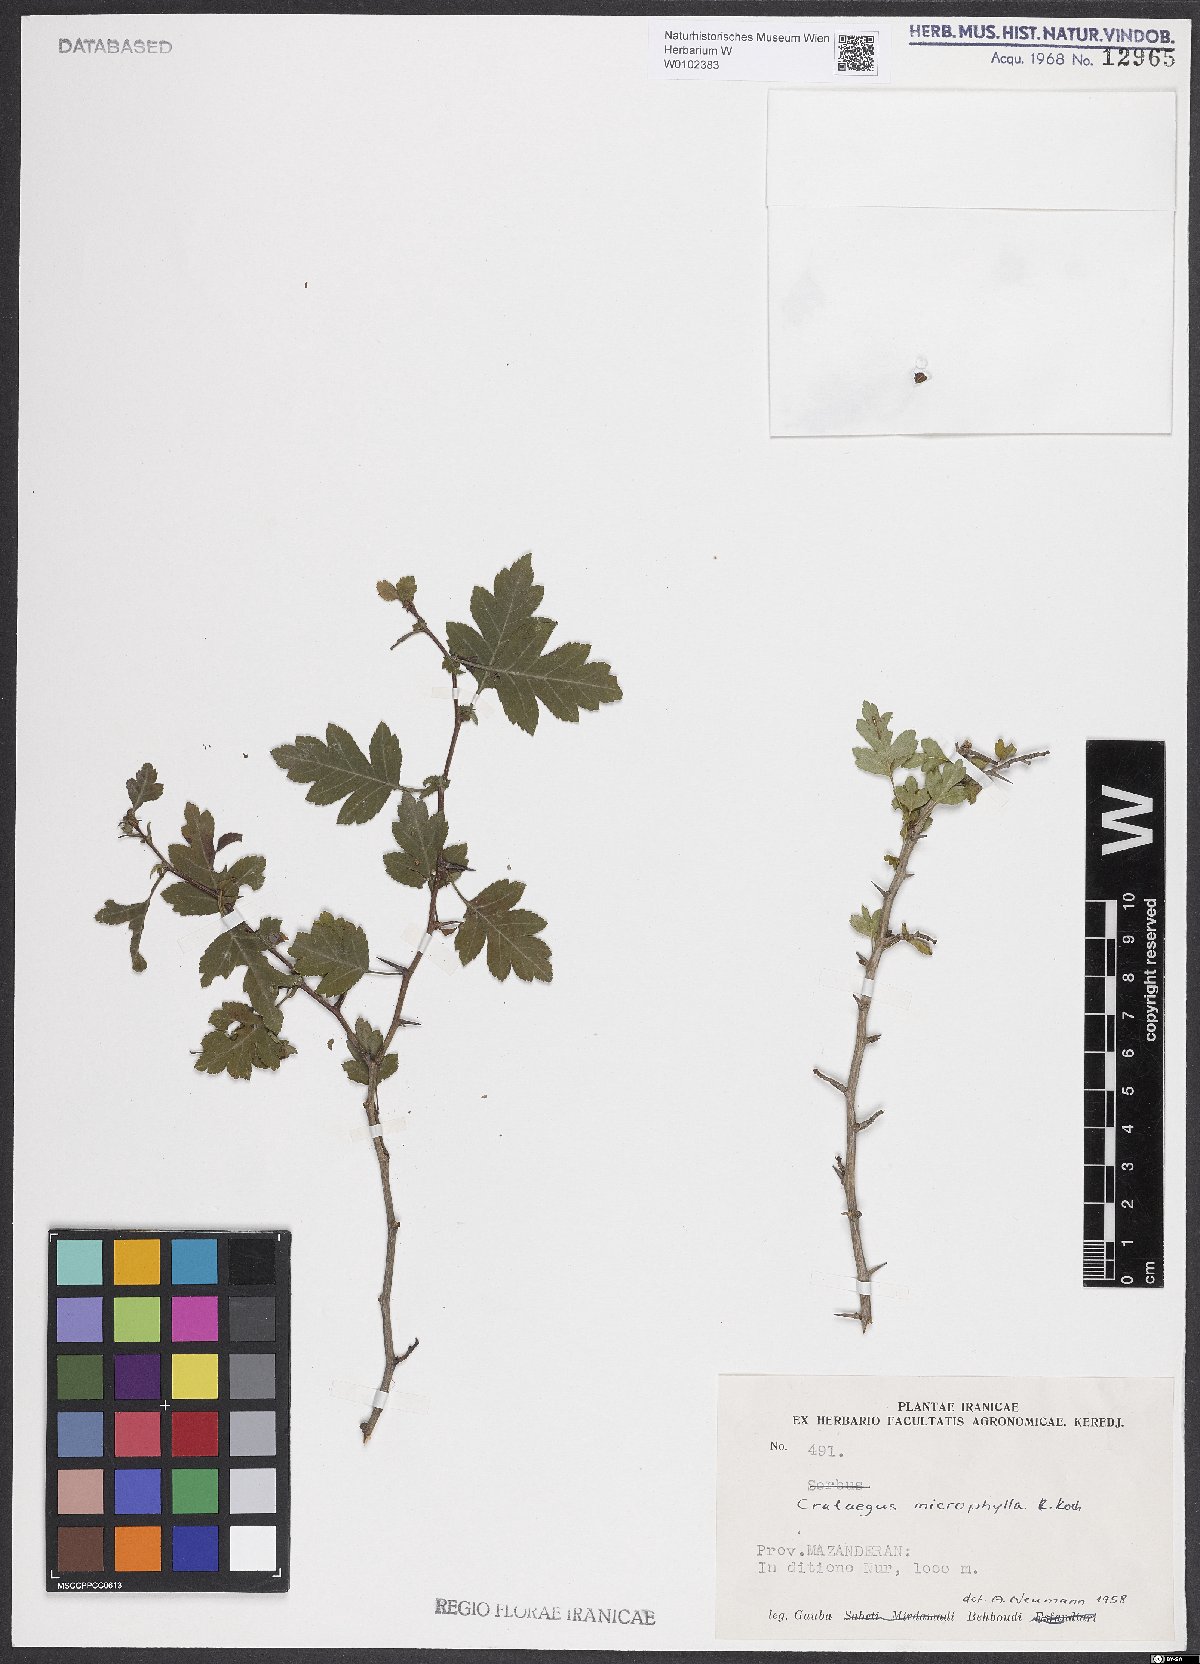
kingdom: Plantae
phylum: Tracheophyta
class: Magnoliopsida
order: Rosales
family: Rosaceae
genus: Crataegus
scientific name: Crataegus microphylla
